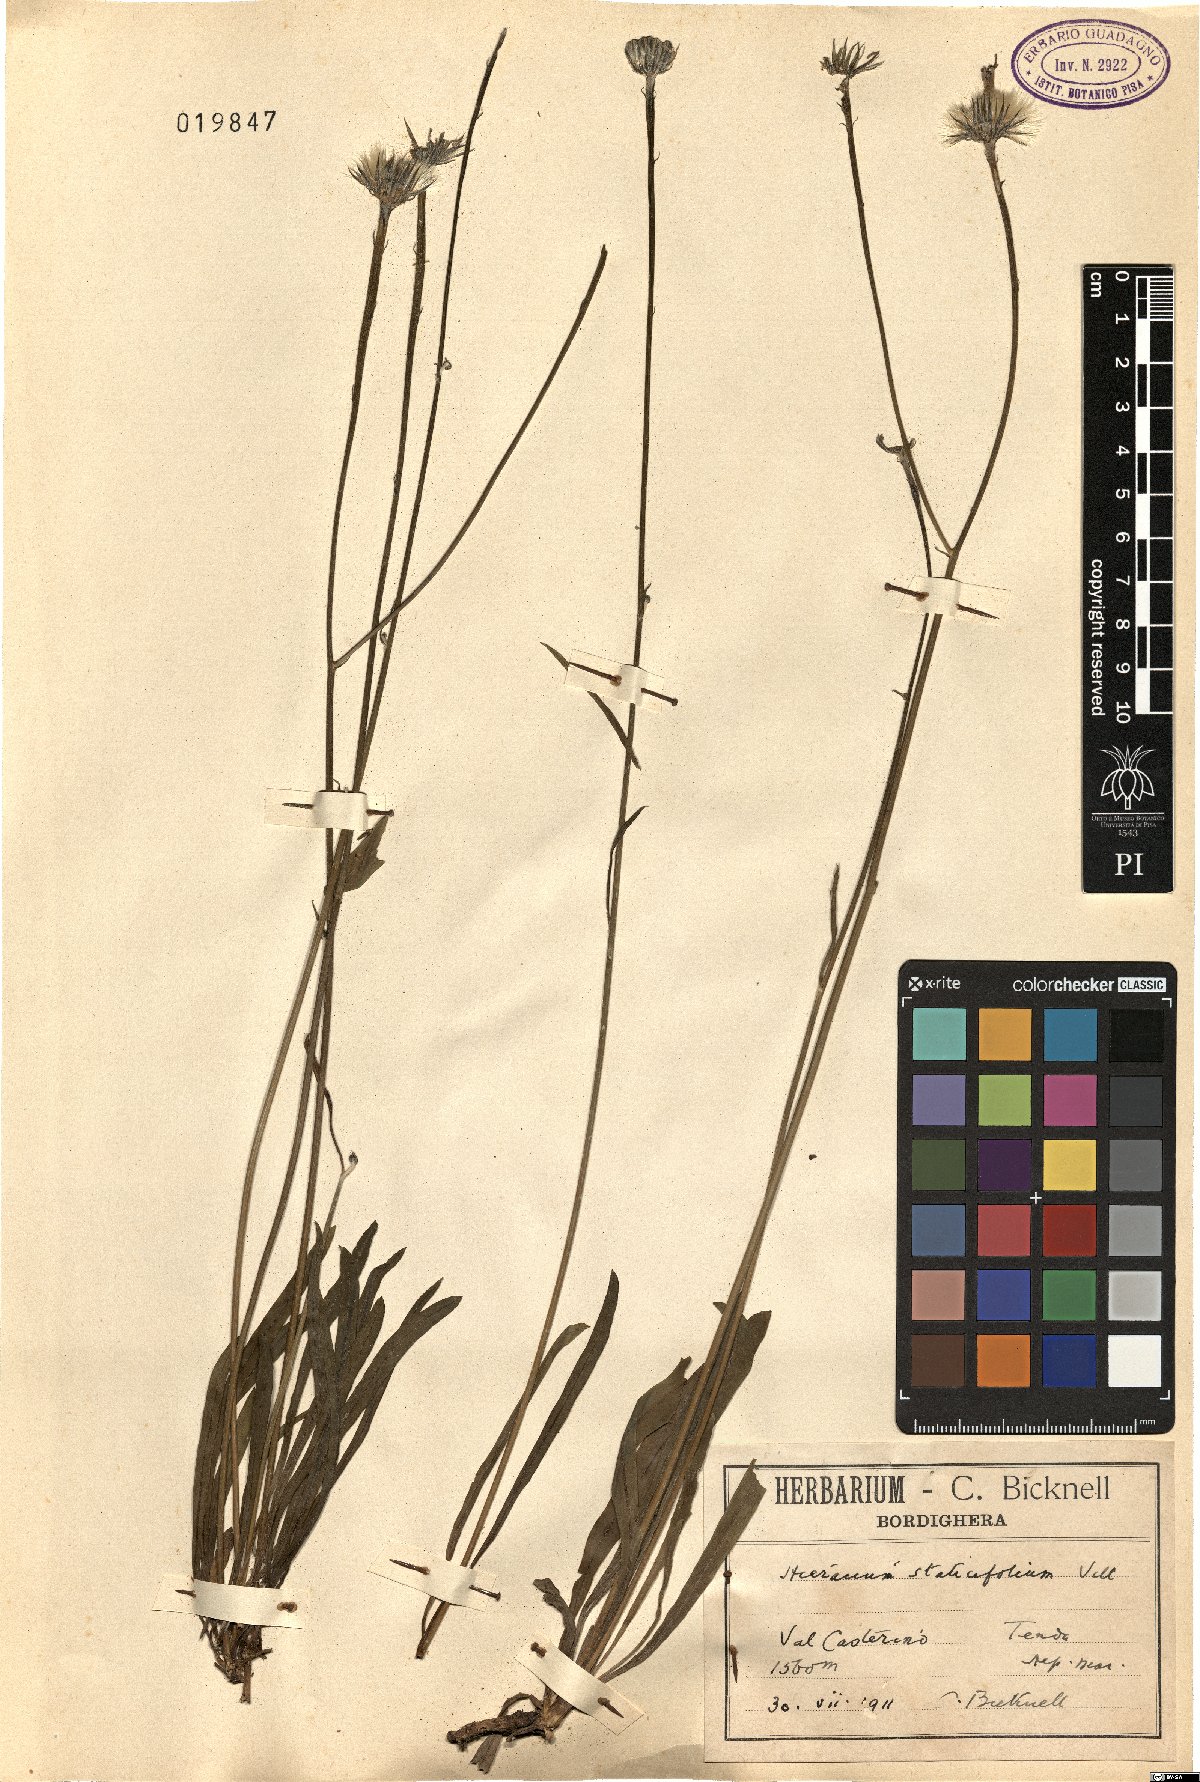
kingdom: Plantae
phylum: Tracheophyta
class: Magnoliopsida
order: Asterales
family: Asteraceae
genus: Tolpis
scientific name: Tolpis staticifolia
